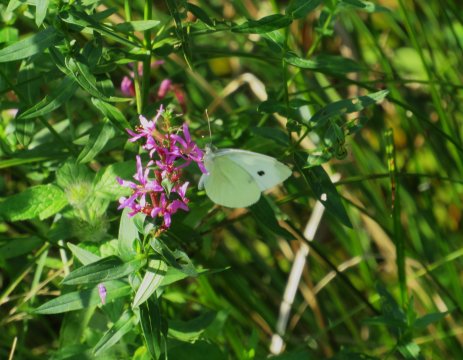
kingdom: Animalia
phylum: Arthropoda
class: Insecta
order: Lepidoptera
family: Pieridae
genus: Pieris
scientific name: Pieris rapae
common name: Cabbage White
